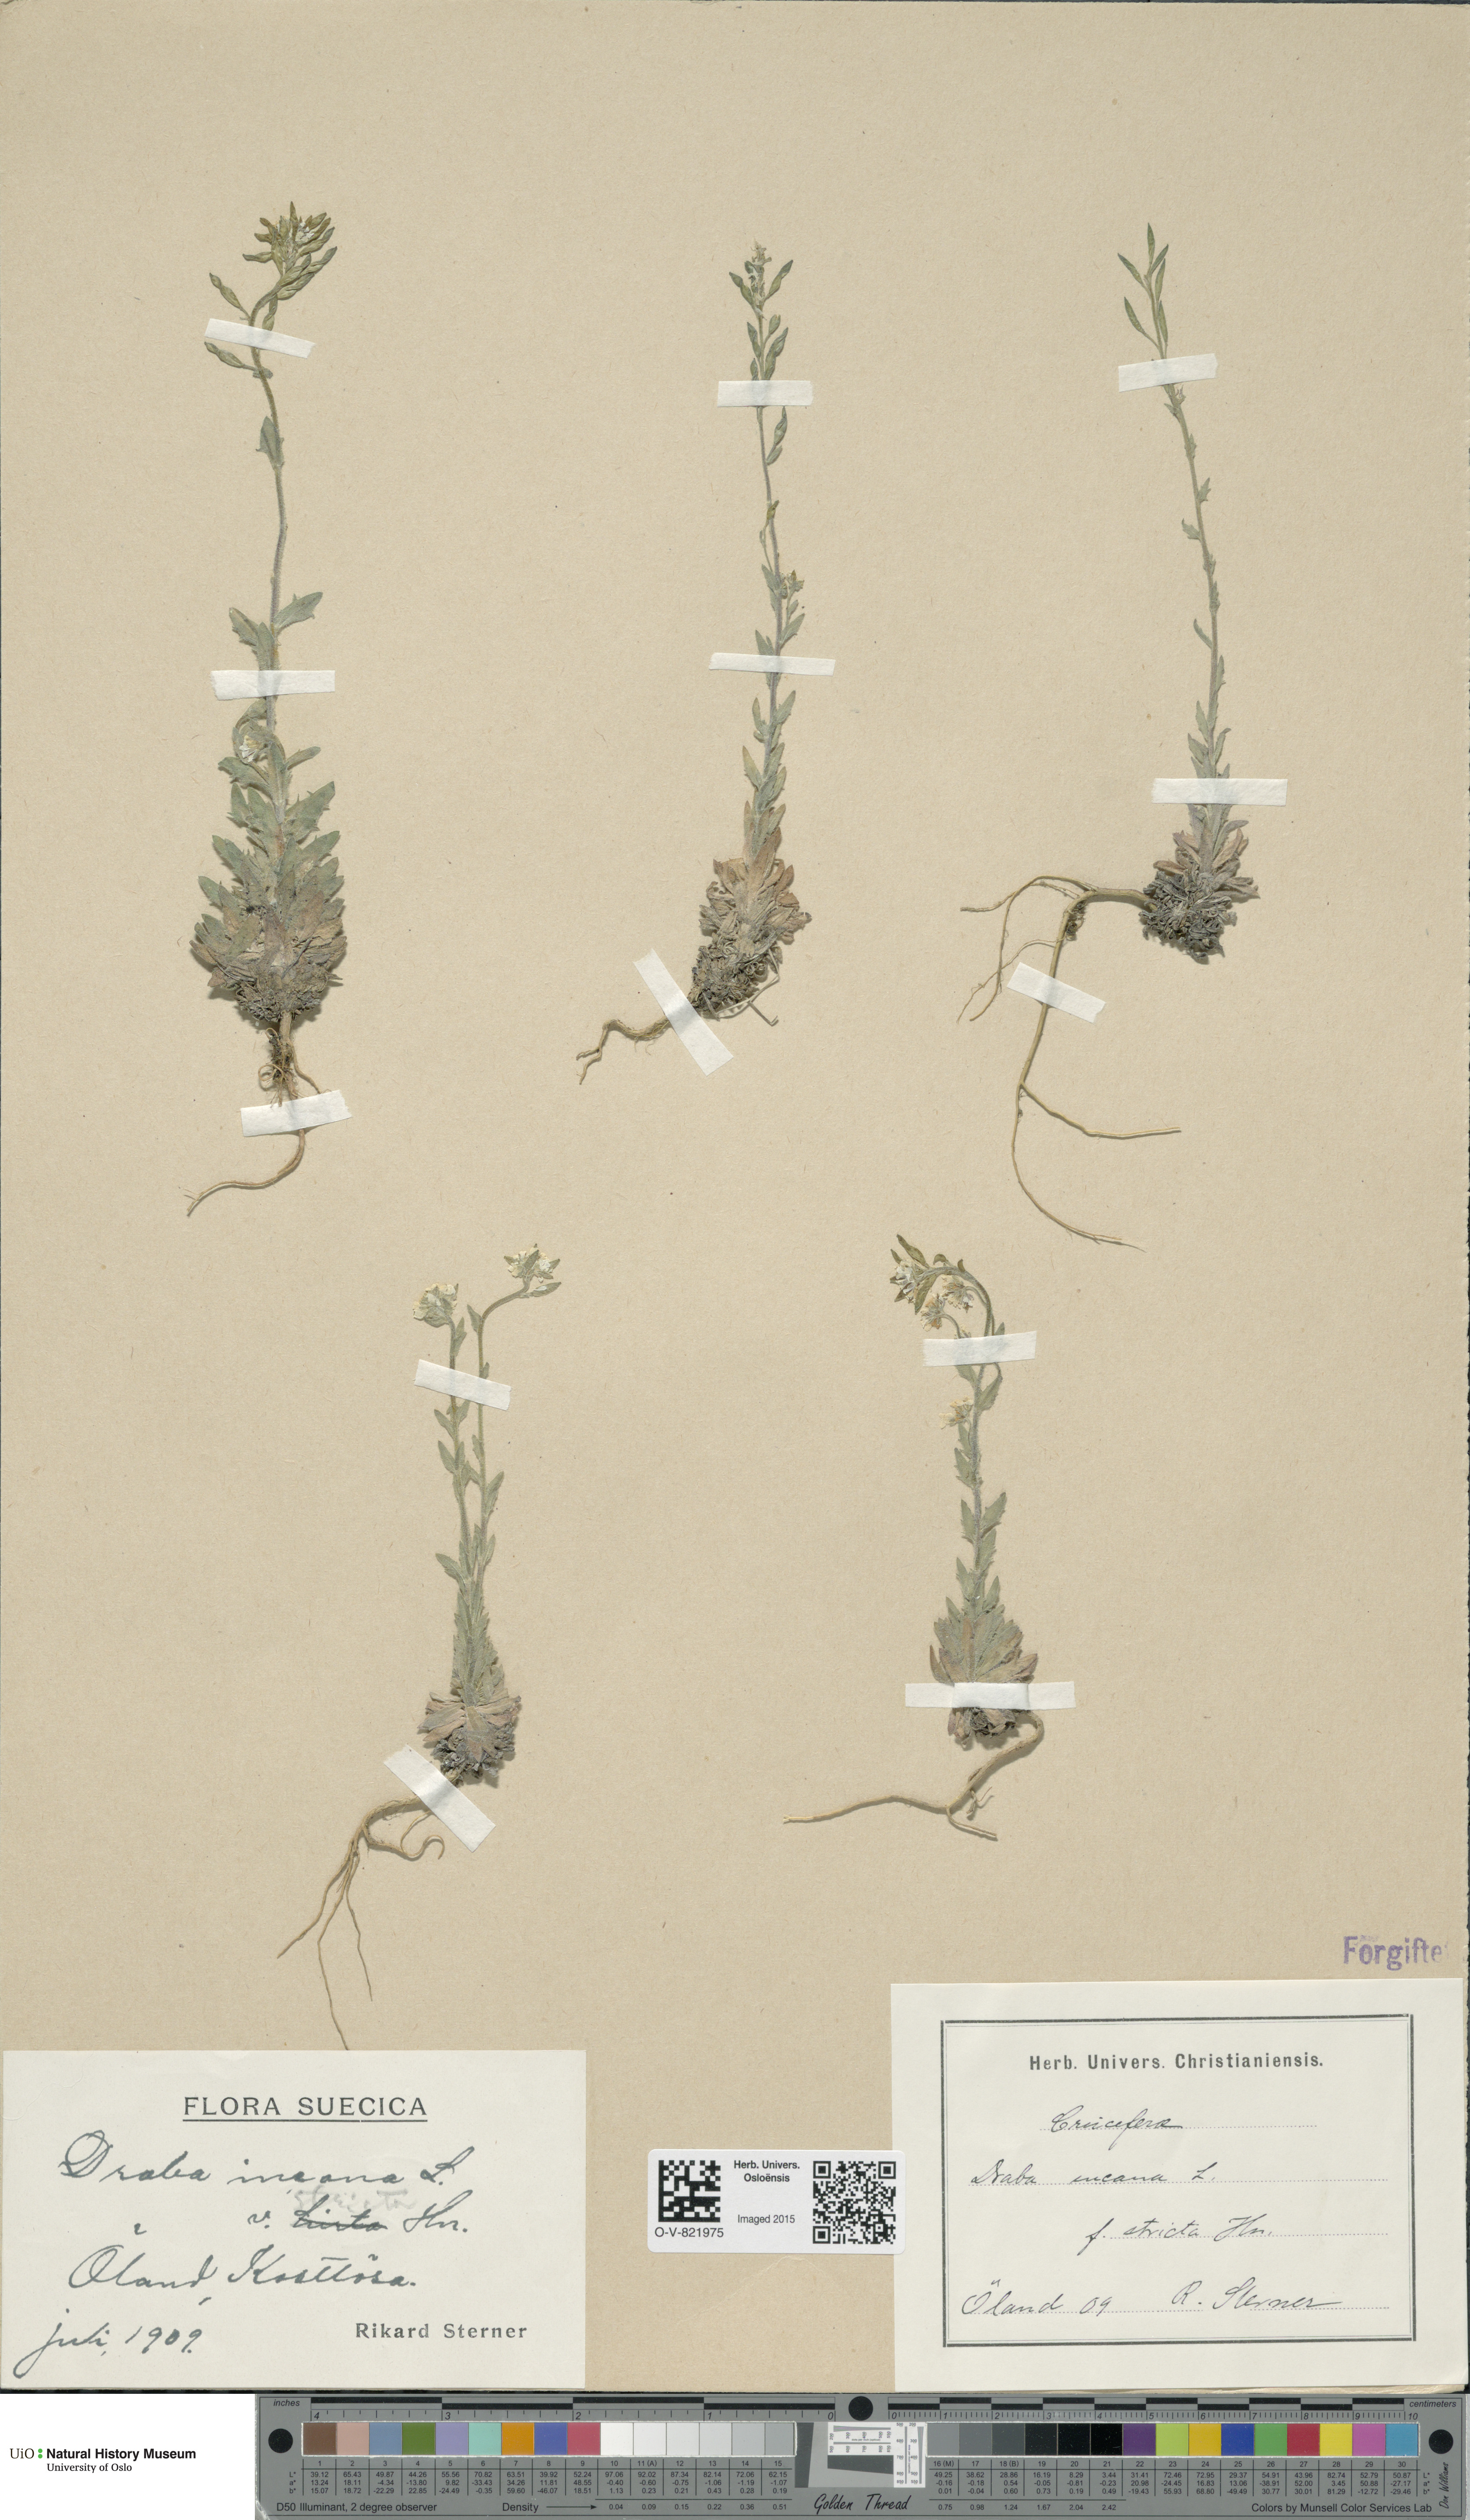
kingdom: Plantae
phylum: Tracheophyta
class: Magnoliopsida
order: Brassicales
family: Brassicaceae
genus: Draba
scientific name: Draba incana
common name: Hoary whitlow-grass
